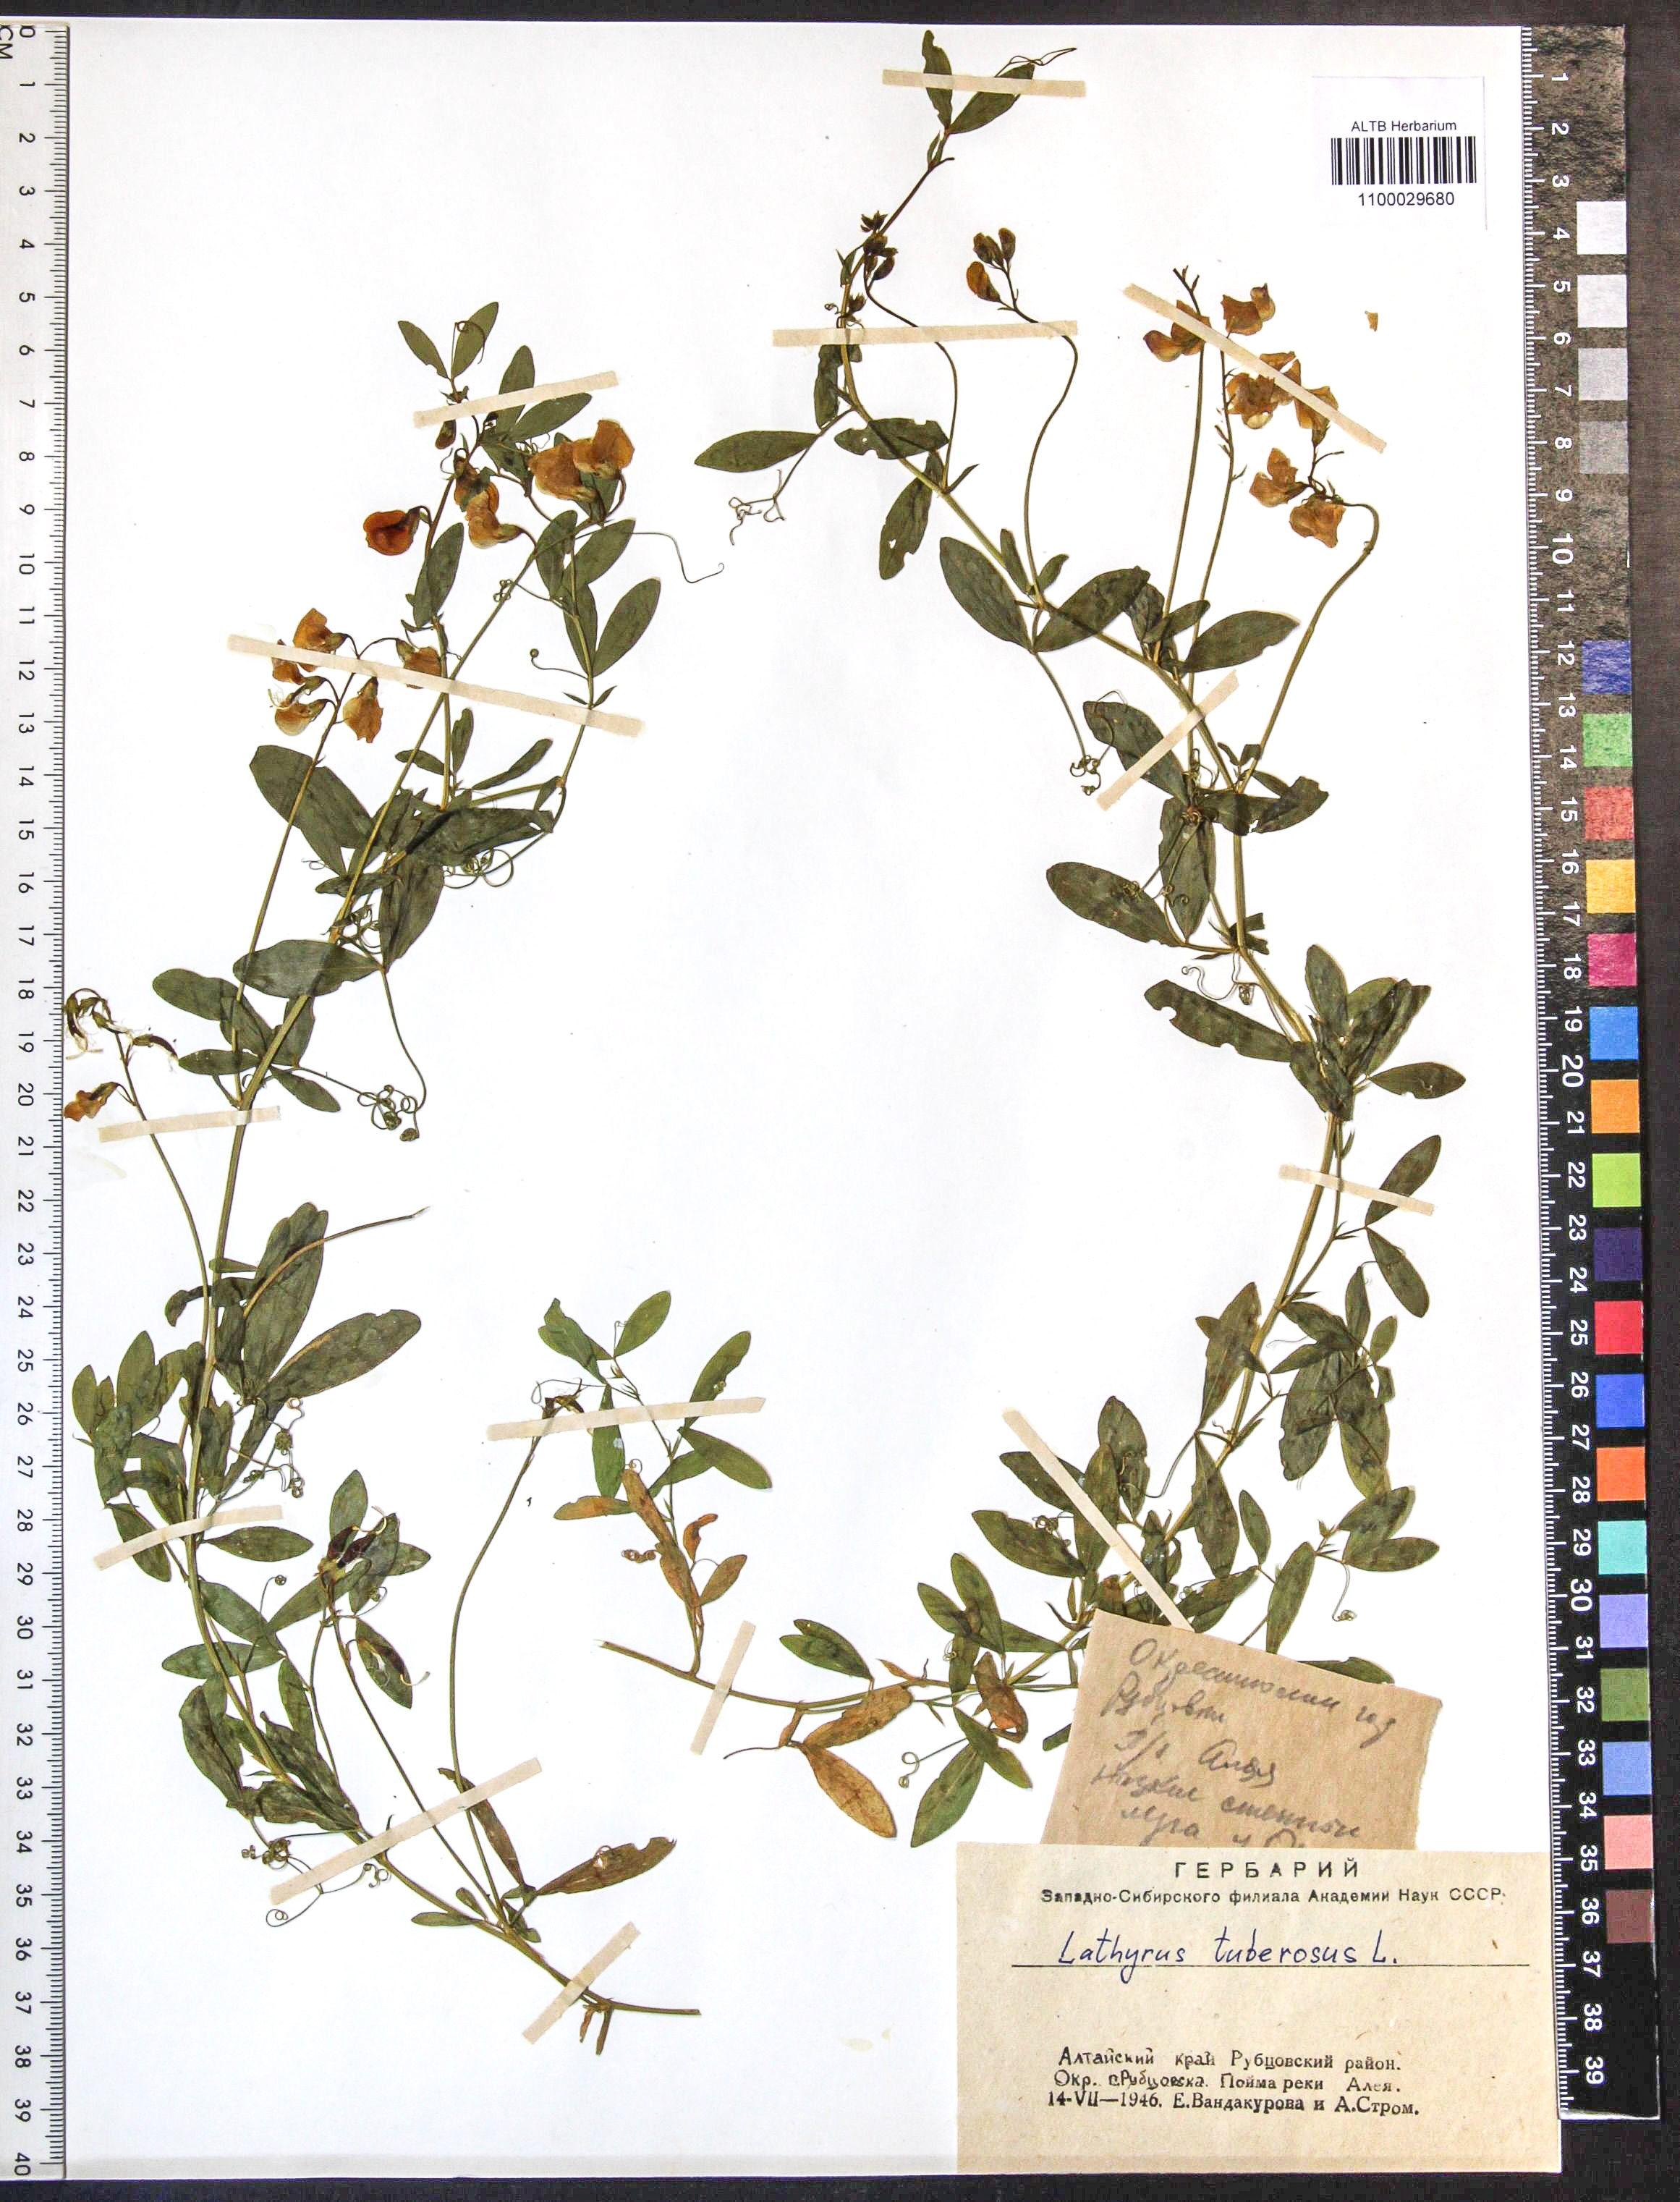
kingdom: Plantae
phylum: Tracheophyta
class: Magnoliopsida
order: Fabales
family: Fabaceae
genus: Lathyrus
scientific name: Lathyrus tuberosus
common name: Tuberous pea
